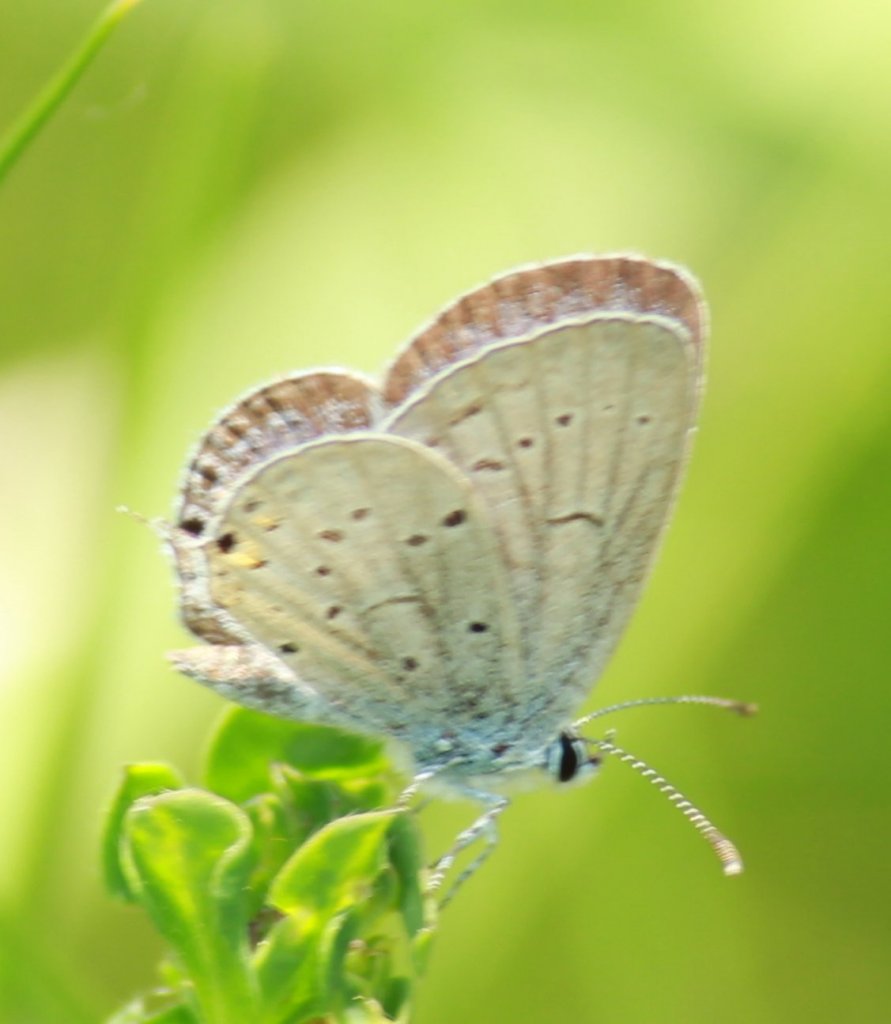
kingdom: Animalia
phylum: Arthropoda
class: Insecta
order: Lepidoptera
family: Lycaenidae
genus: Elkalyce
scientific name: Elkalyce comyntas
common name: Eastern Tailed-Blue
